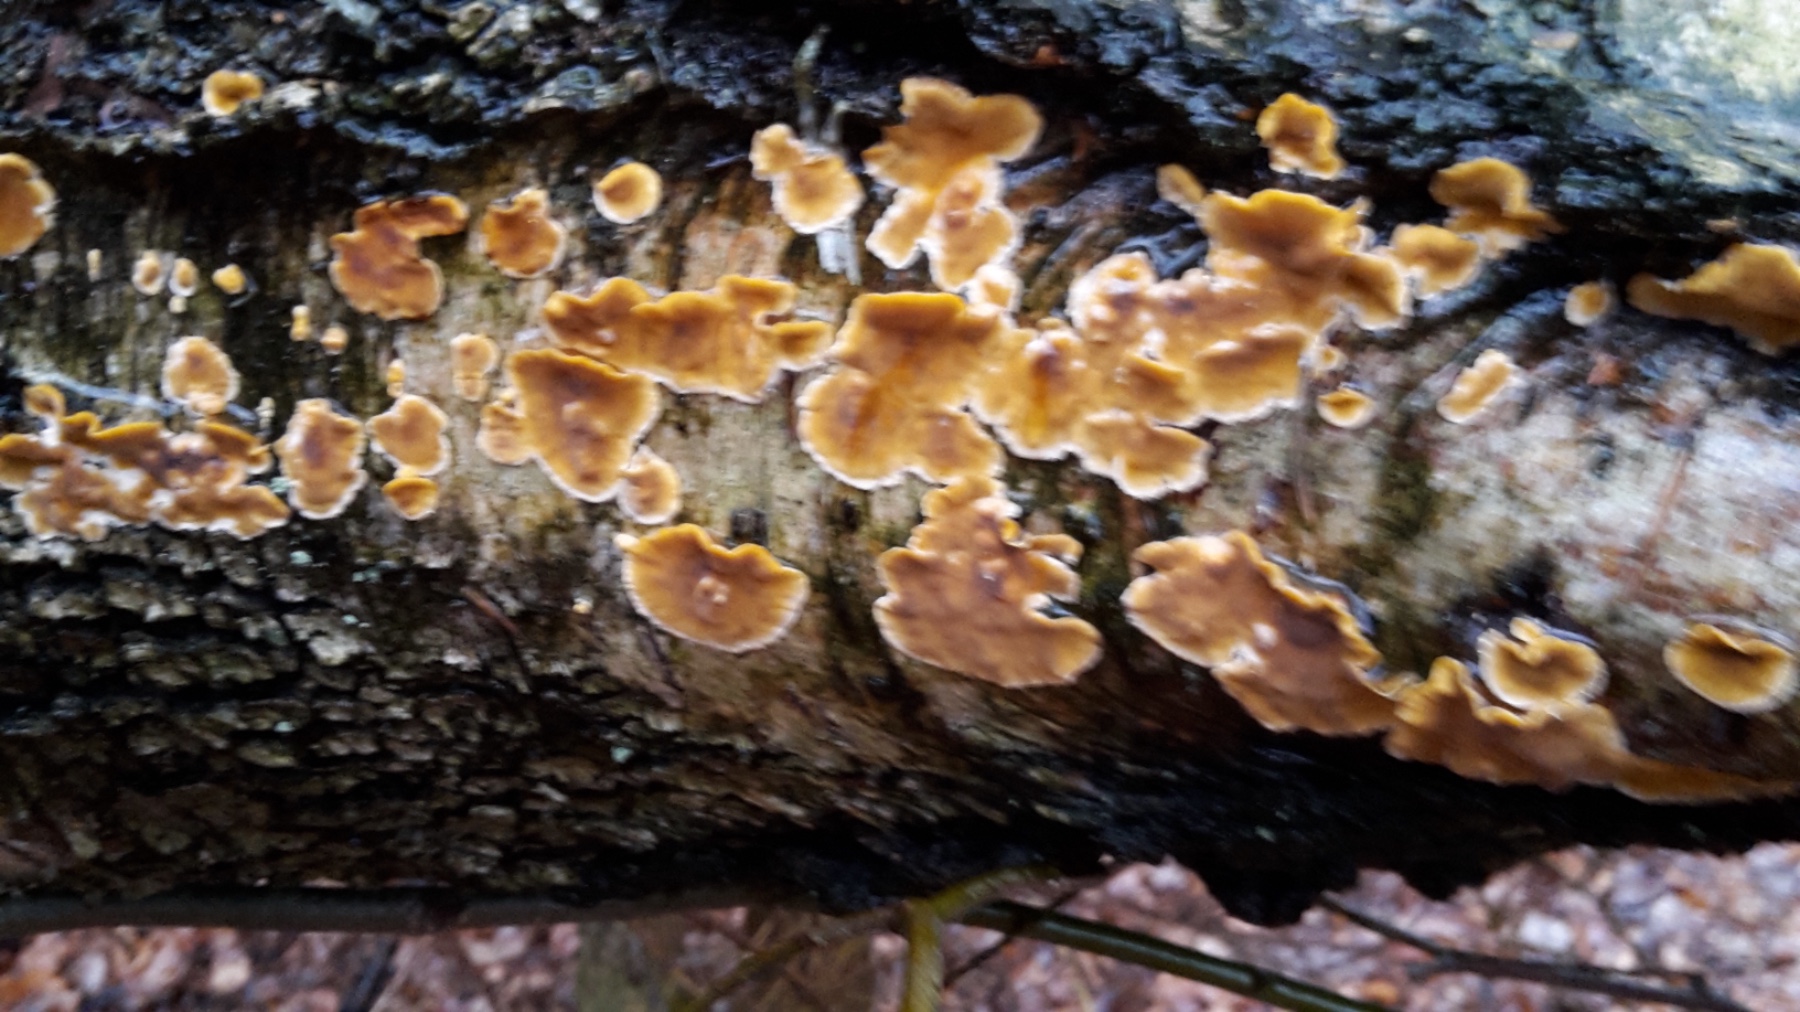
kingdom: Fungi
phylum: Basidiomycota
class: Agaricomycetes
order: Russulales
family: Stereaceae
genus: Stereum
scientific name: Stereum hirsutum
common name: håret lædersvamp
